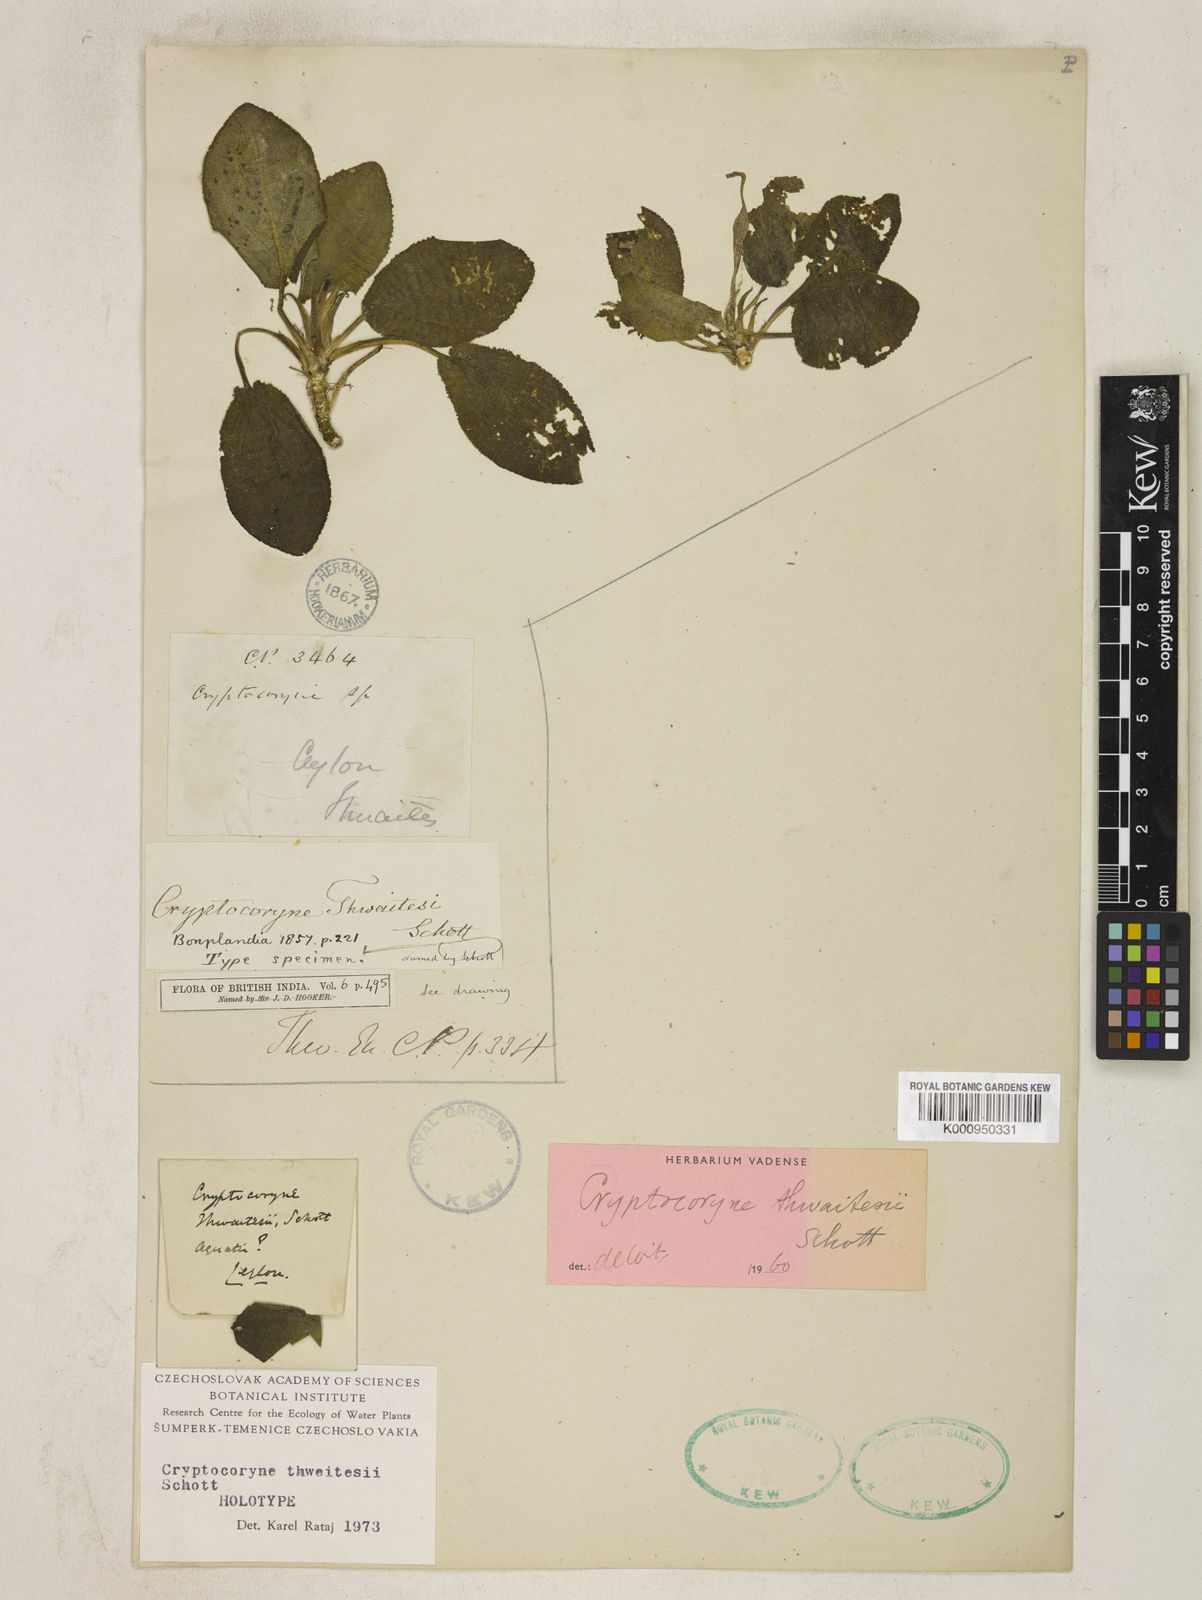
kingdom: Plantae
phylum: Tracheophyta
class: Liliopsida
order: Alismatales
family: Araceae
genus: Cryptocoryne
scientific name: Cryptocoryne thwaitesii
